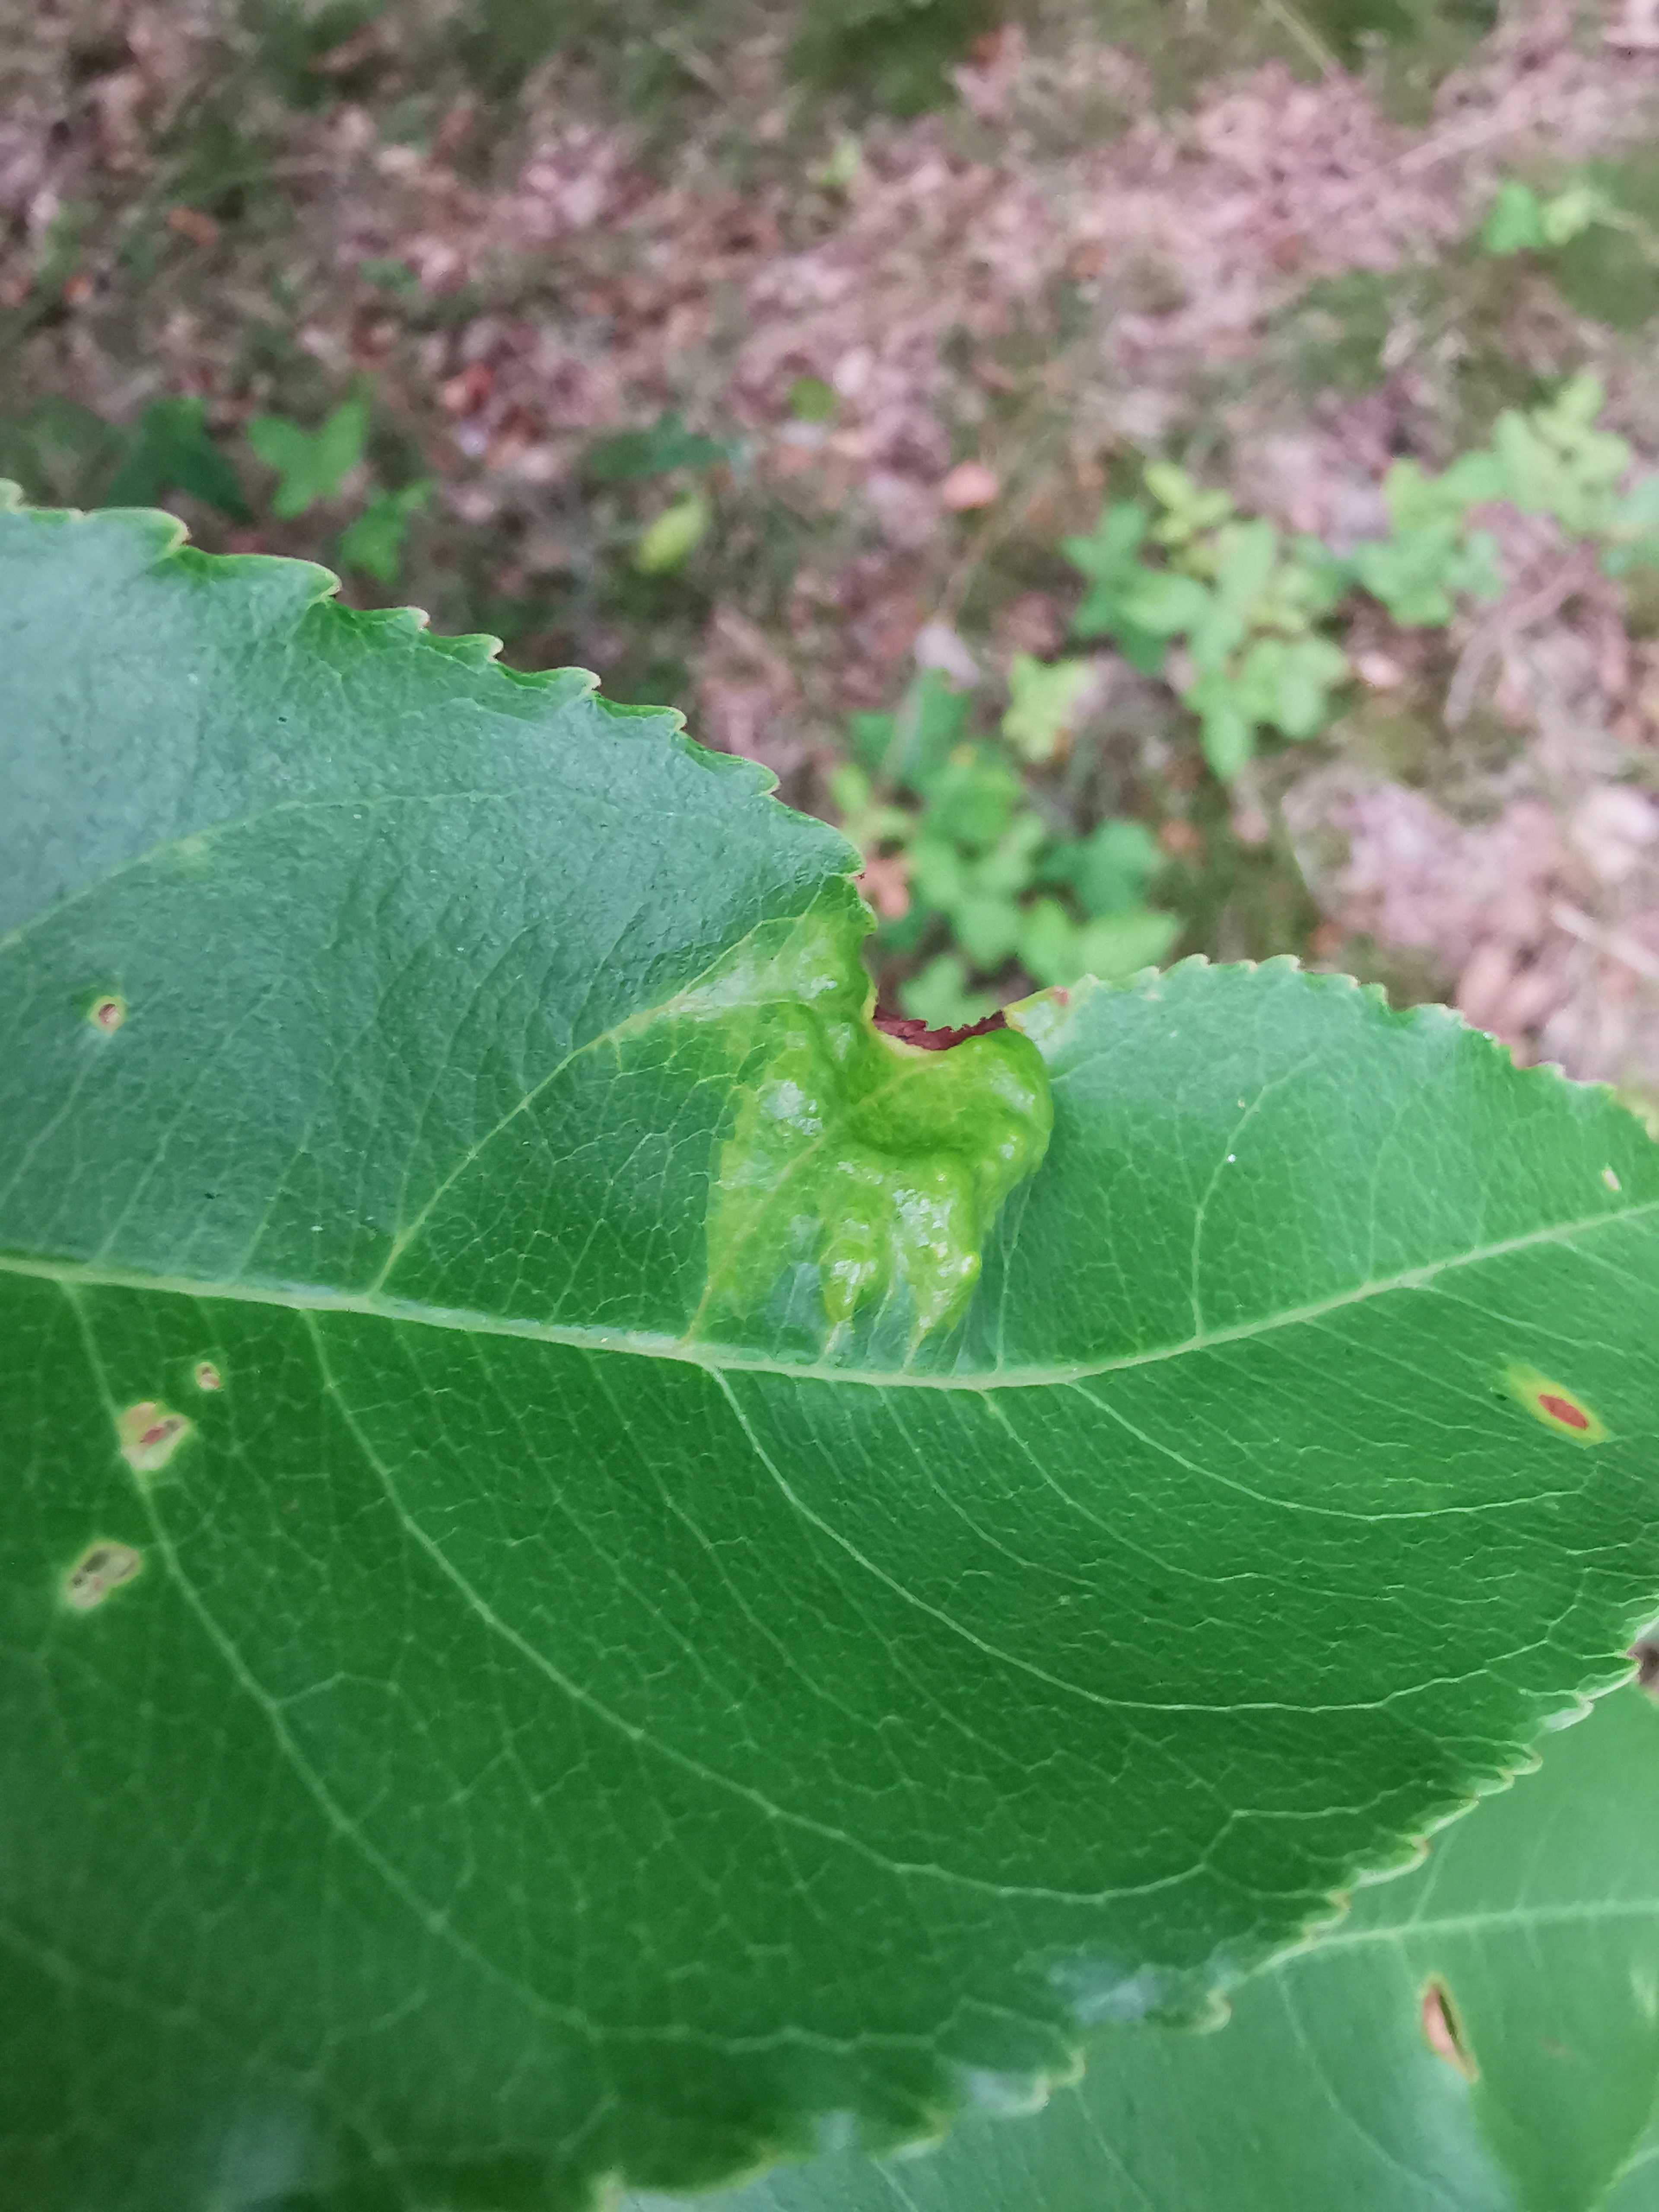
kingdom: Fungi
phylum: Ascomycota
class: Taphrinomycetes
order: Taphrinales
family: Taphrinaceae
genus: Taphrina
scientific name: Taphrina farlowii
